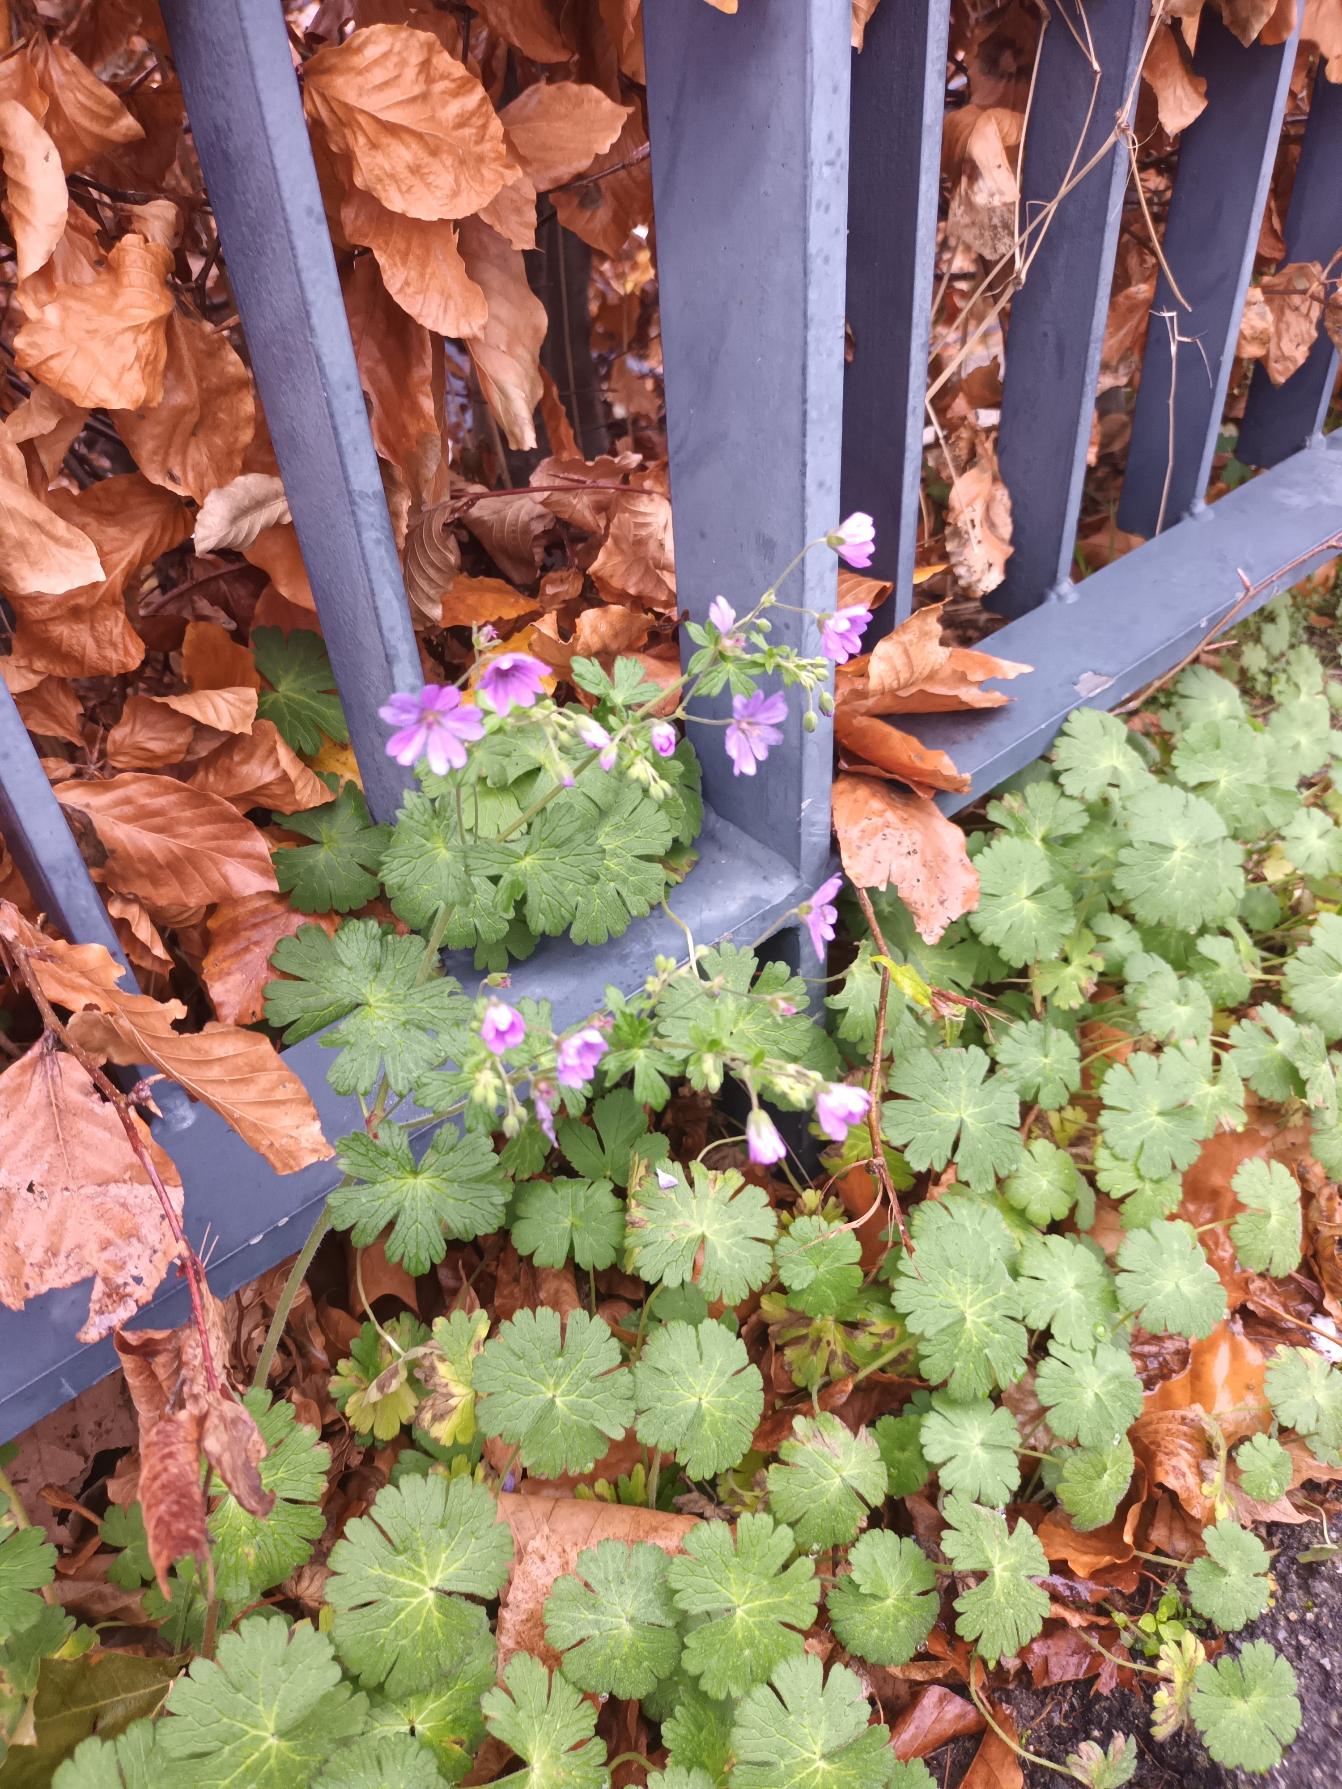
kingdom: Plantae
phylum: Tracheophyta
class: Magnoliopsida
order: Geraniales
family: Geraniaceae
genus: Geranium
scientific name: Geranium pyrenaicum
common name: Pyrenæisk storkenæb
